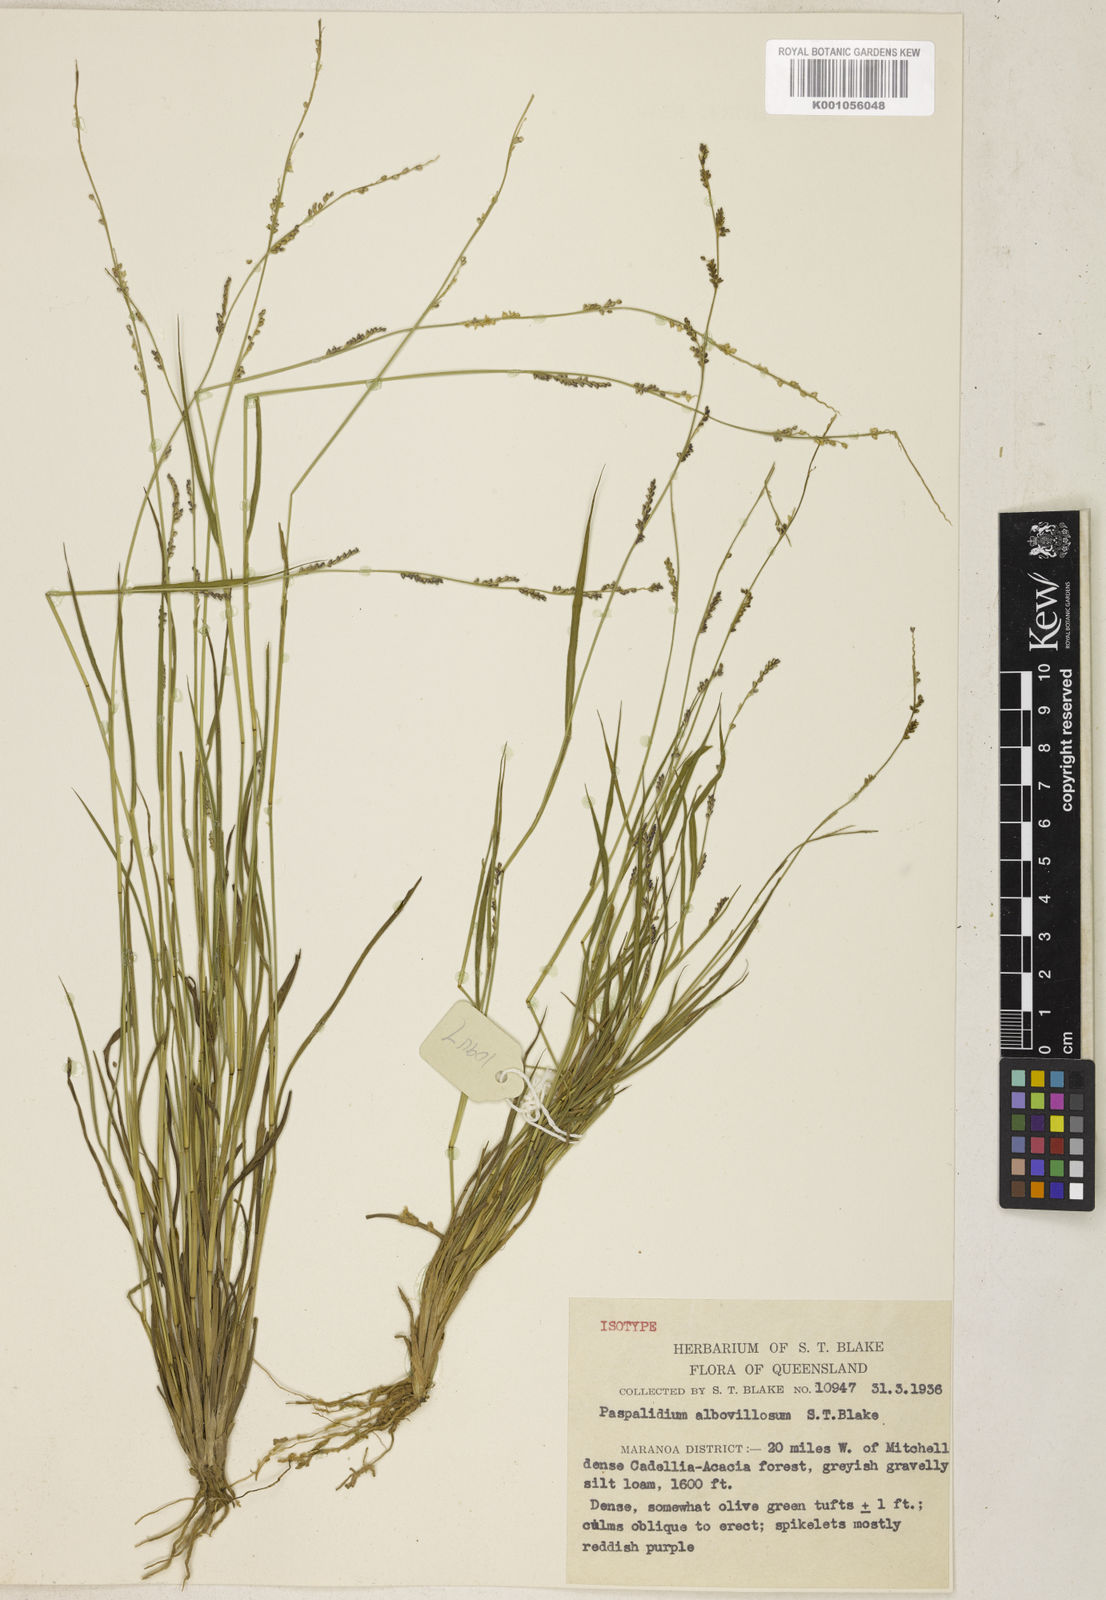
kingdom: Plantae
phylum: Tracheophyta
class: Liliopsida
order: Poales
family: Poaceae
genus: Setaria
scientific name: Setaria albovillosa
